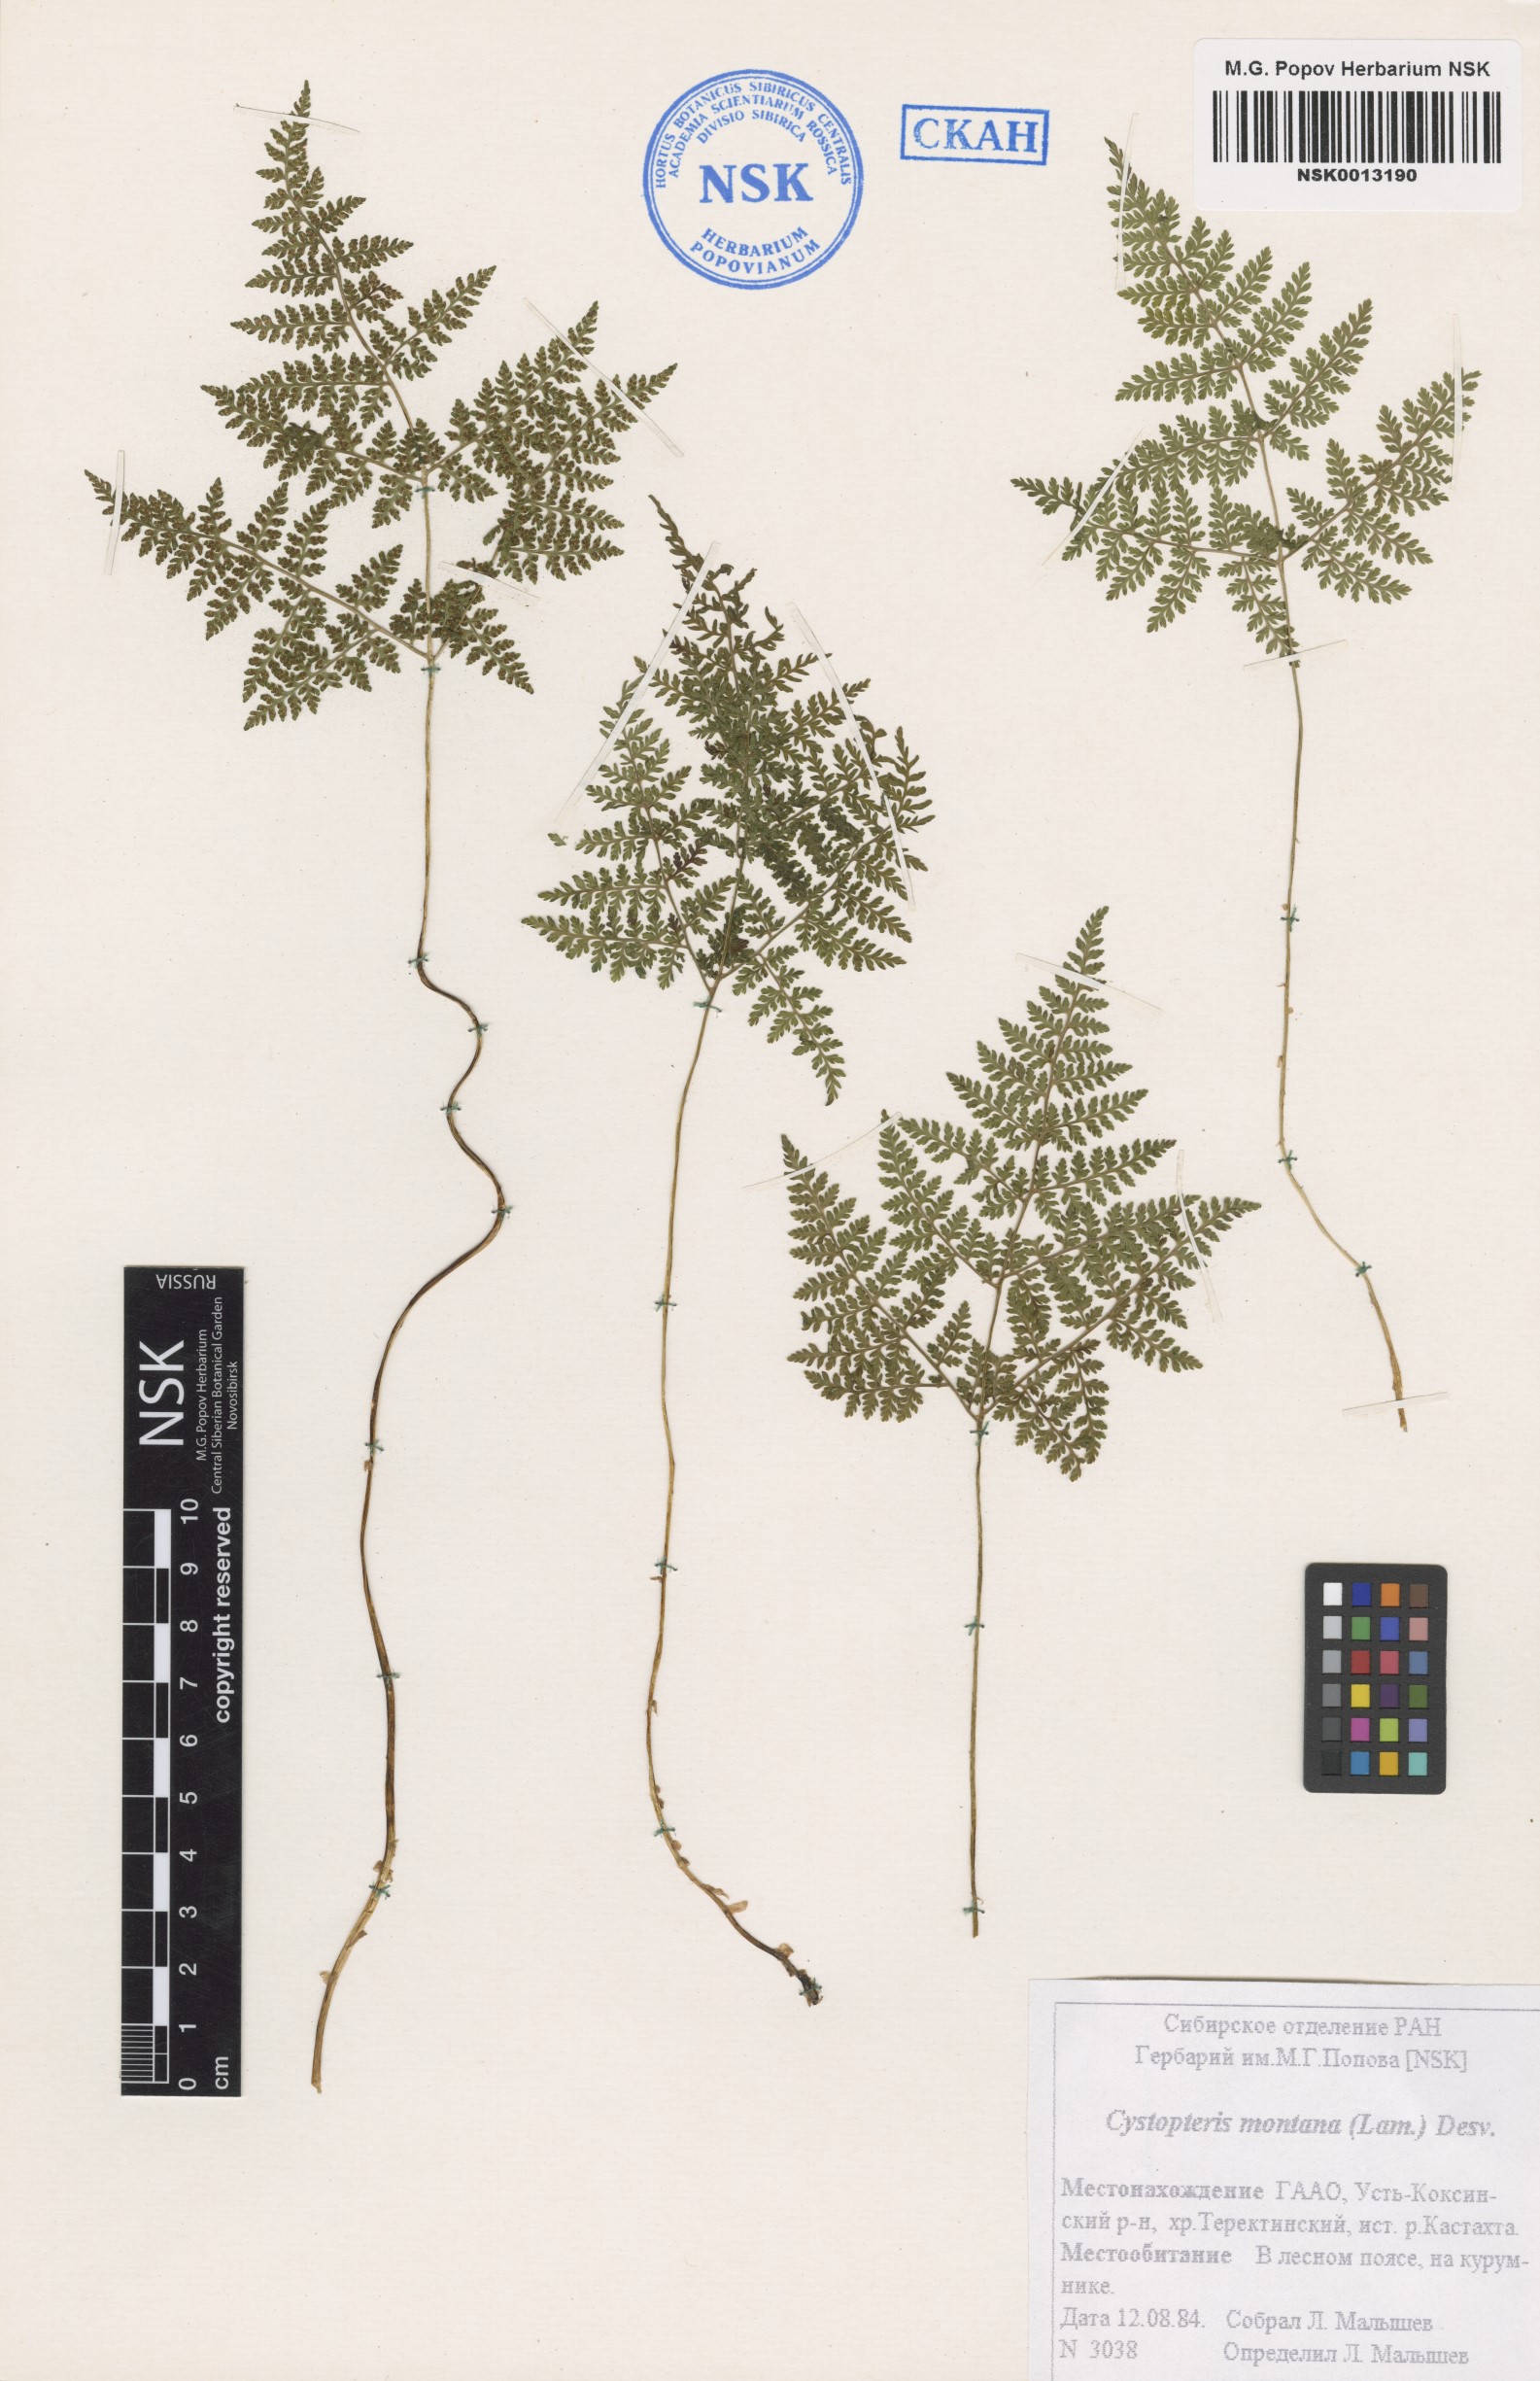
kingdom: Plantae
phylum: Tracheophyta
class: Polypodiopsida
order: Polypodiales
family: Cystopteridaceae
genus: Cystopteris
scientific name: Cystopteris montana
